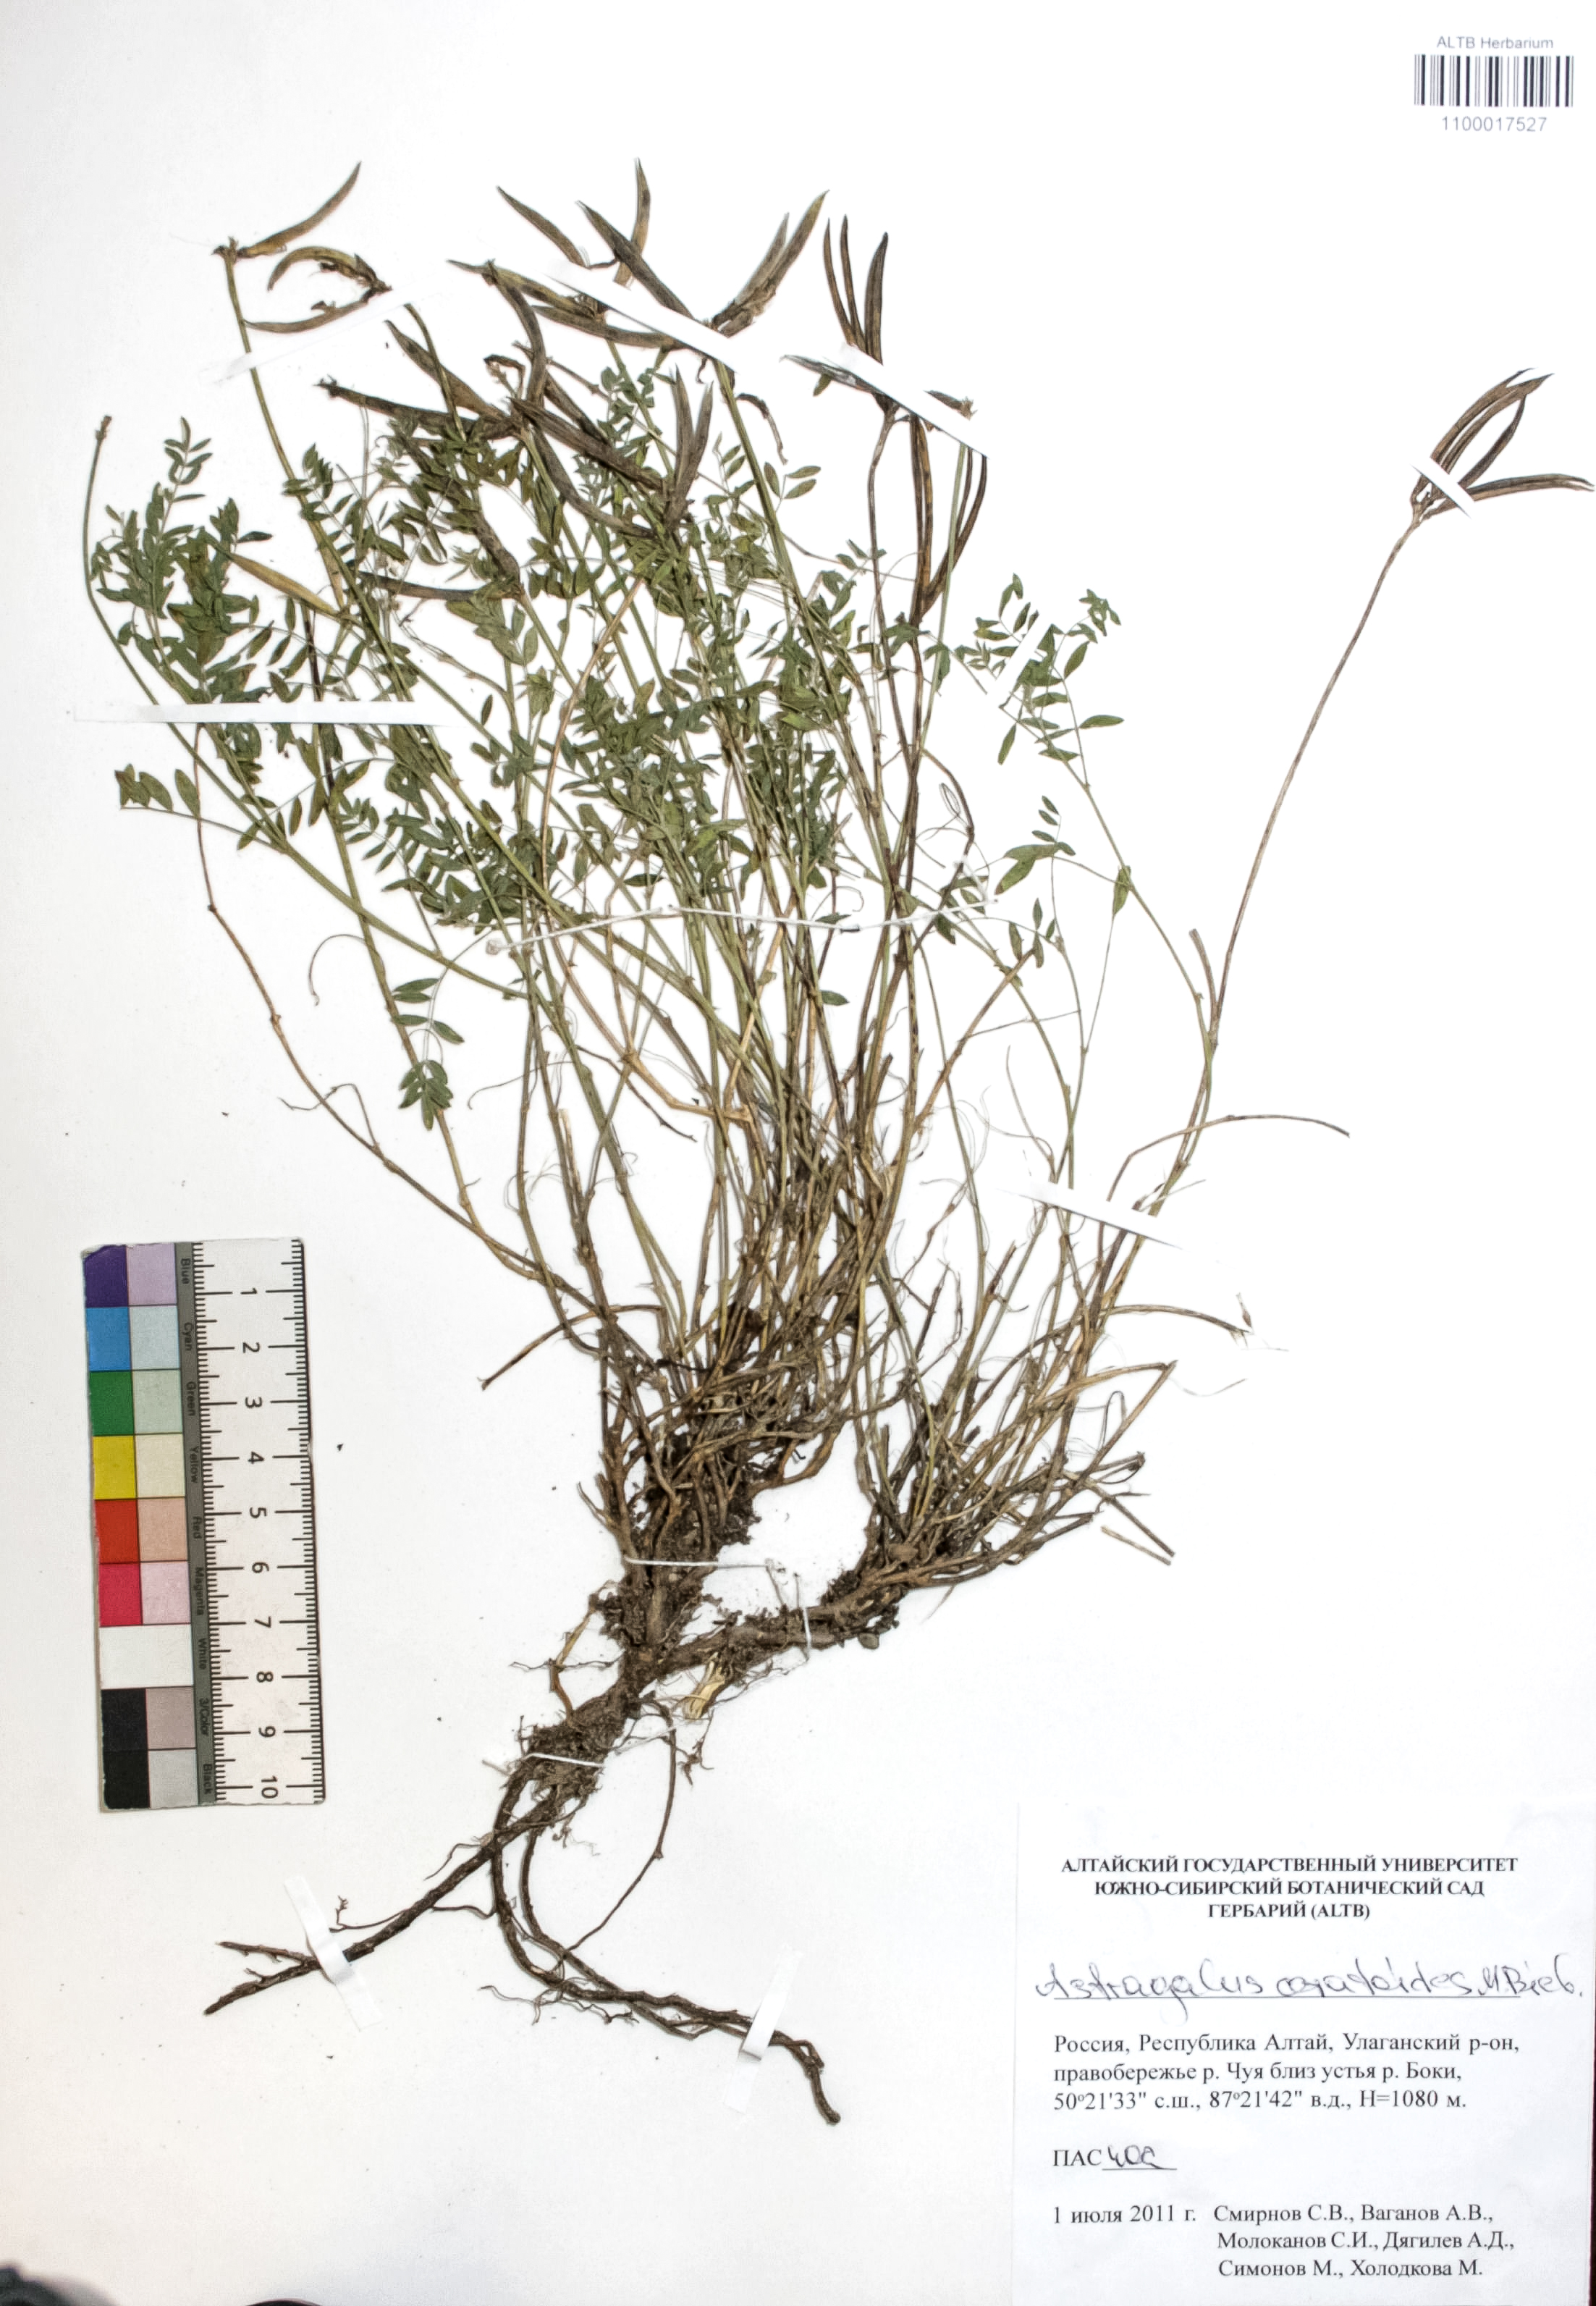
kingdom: Plantae
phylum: Tracheophyta
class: Magnoliopsida
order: Fabales
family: Fabaceae
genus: Astragalus
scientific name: Astragalus ceratoides
